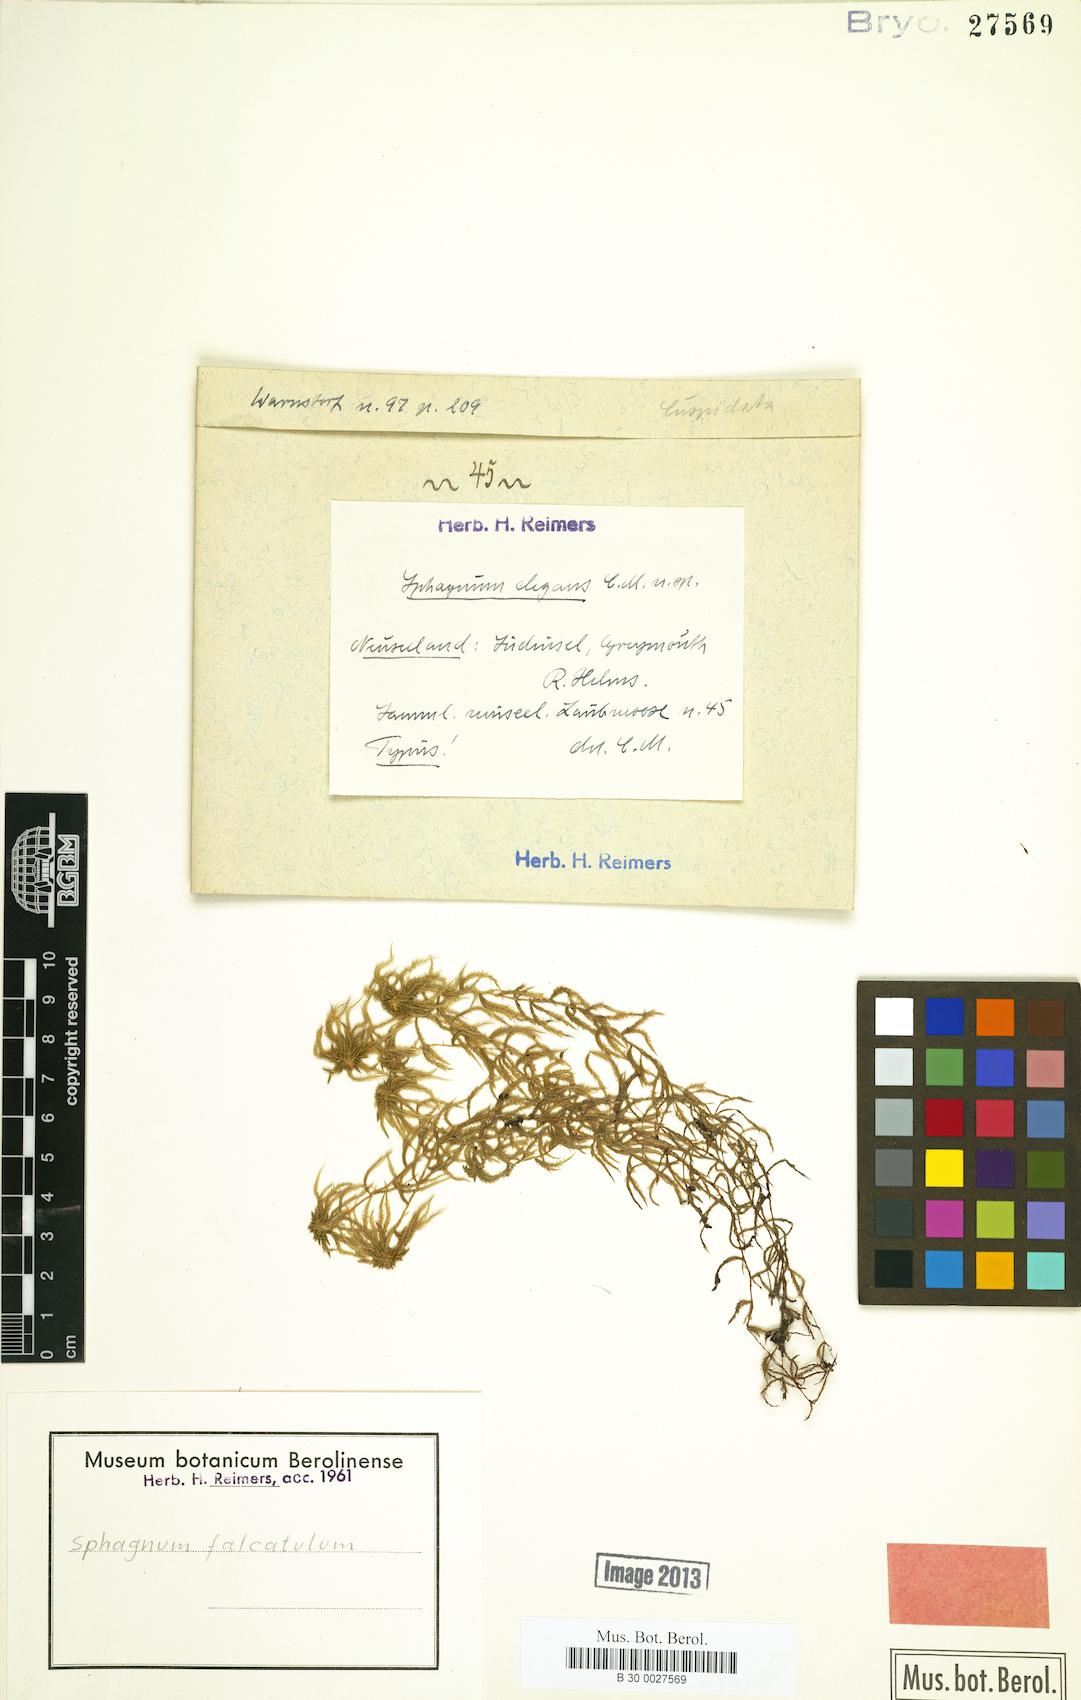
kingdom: Plantae
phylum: Bryophyta
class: Sphagnopsida
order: Sphagnales
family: Sphagnaceae
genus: Sphagnum
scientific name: Sphagnum falcatulum
